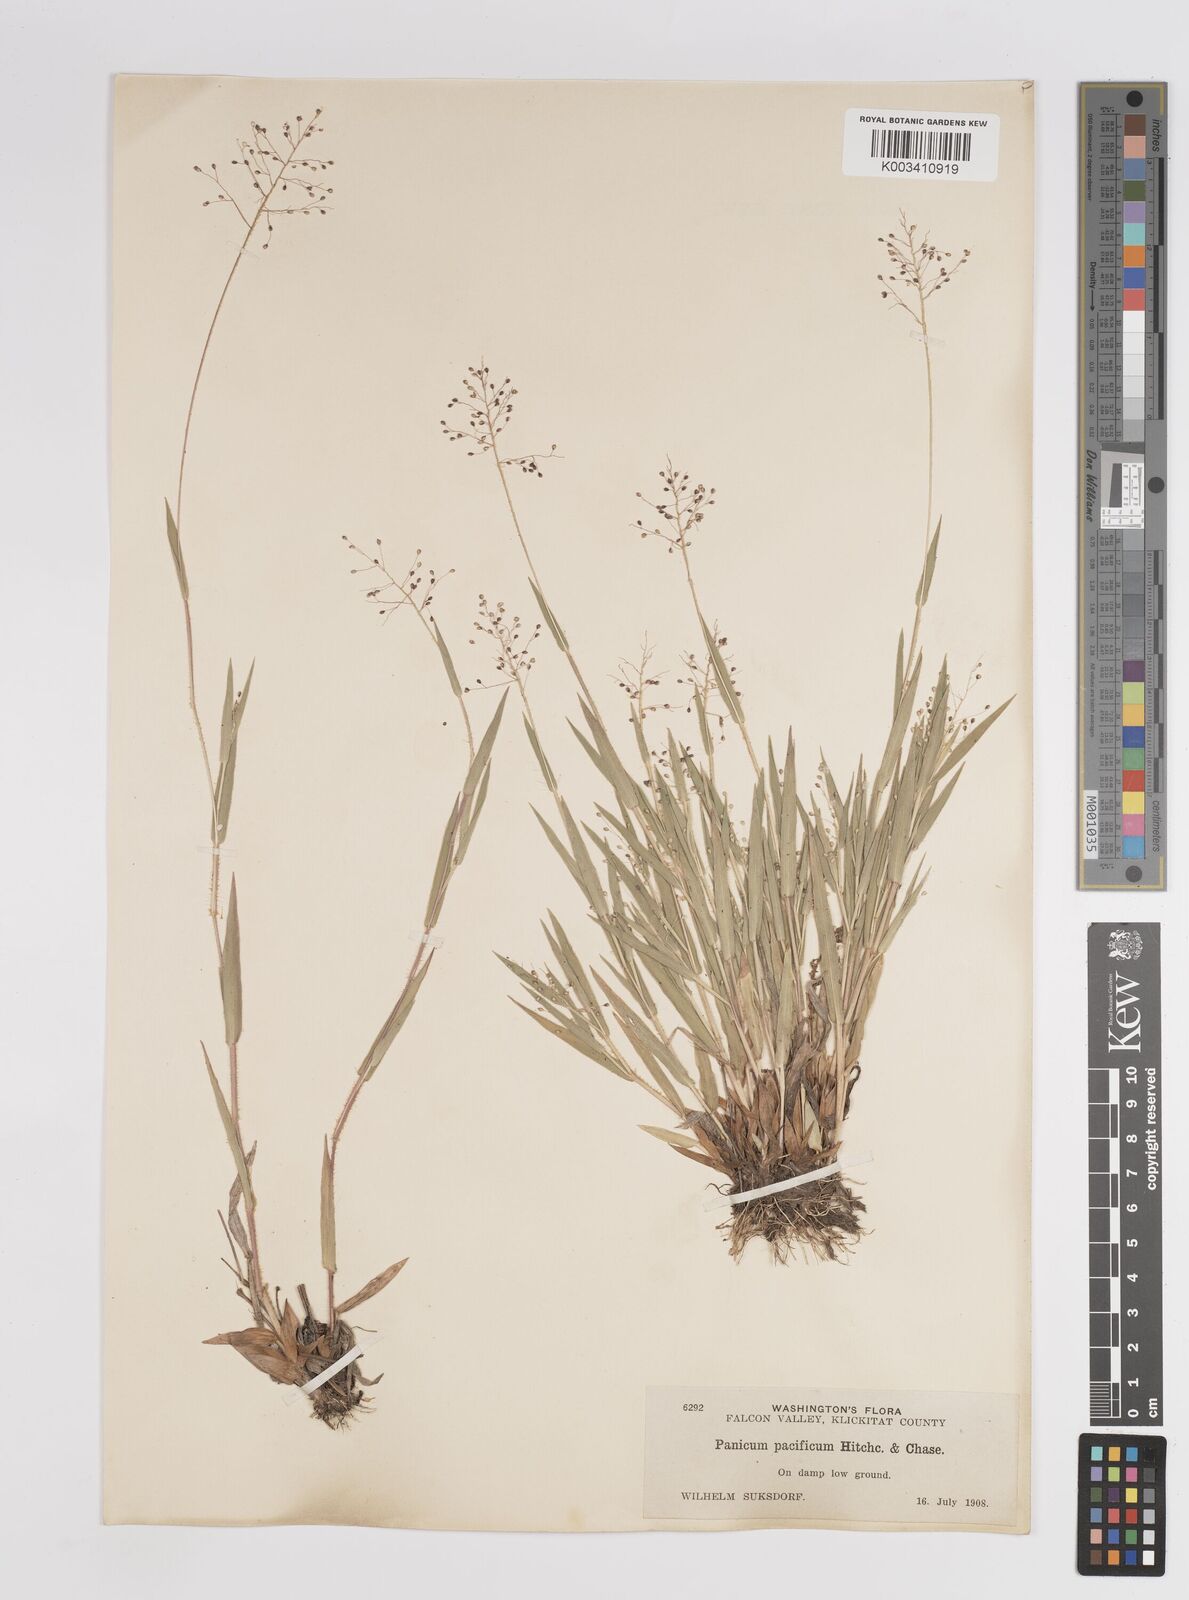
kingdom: Plantae
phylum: Tracheophyta
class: Liliopsida
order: Poales
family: Poaceae
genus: Dichanthelium
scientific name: Dichanthelium implicatum
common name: Slender-stemmed panicgrass
